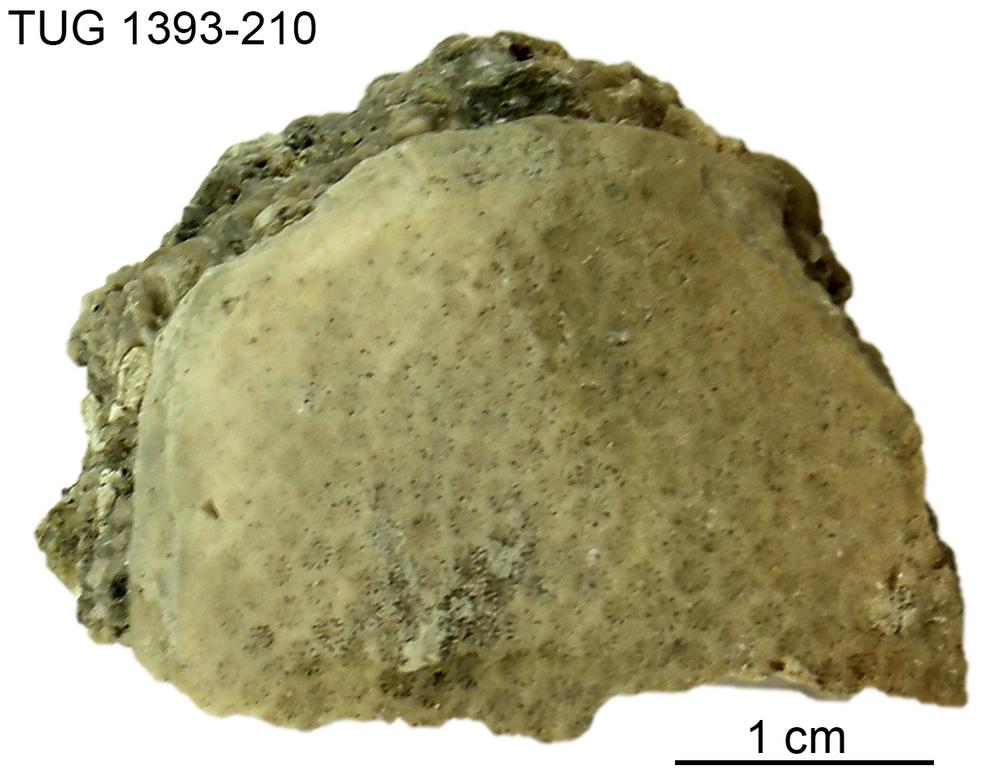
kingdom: Animalia
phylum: Cnidaria
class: Anthozoa
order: Heliolitina
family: Heliolitidae
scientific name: Heliolitidae
